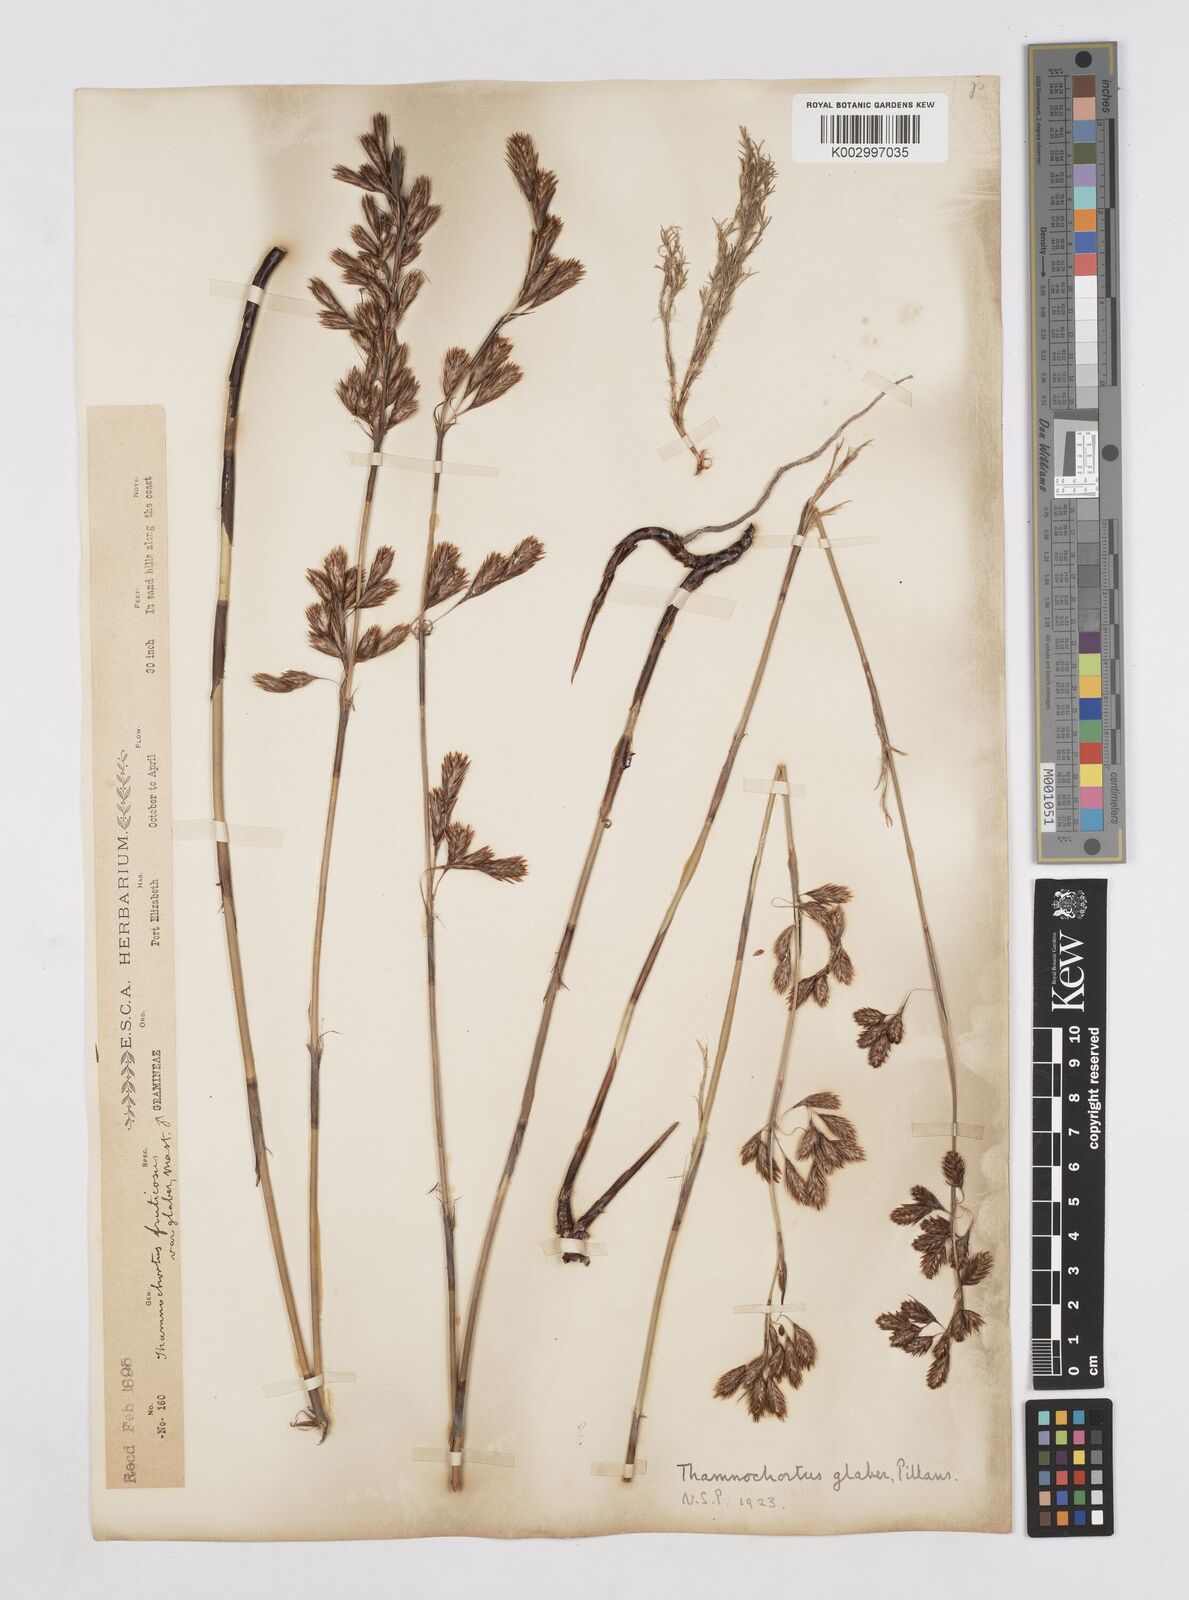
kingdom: Plantae
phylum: Tracheophyta
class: Liliopsida
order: Poales
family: Restionaceae
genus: Thamnochortus
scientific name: Thamnochortus glaber
